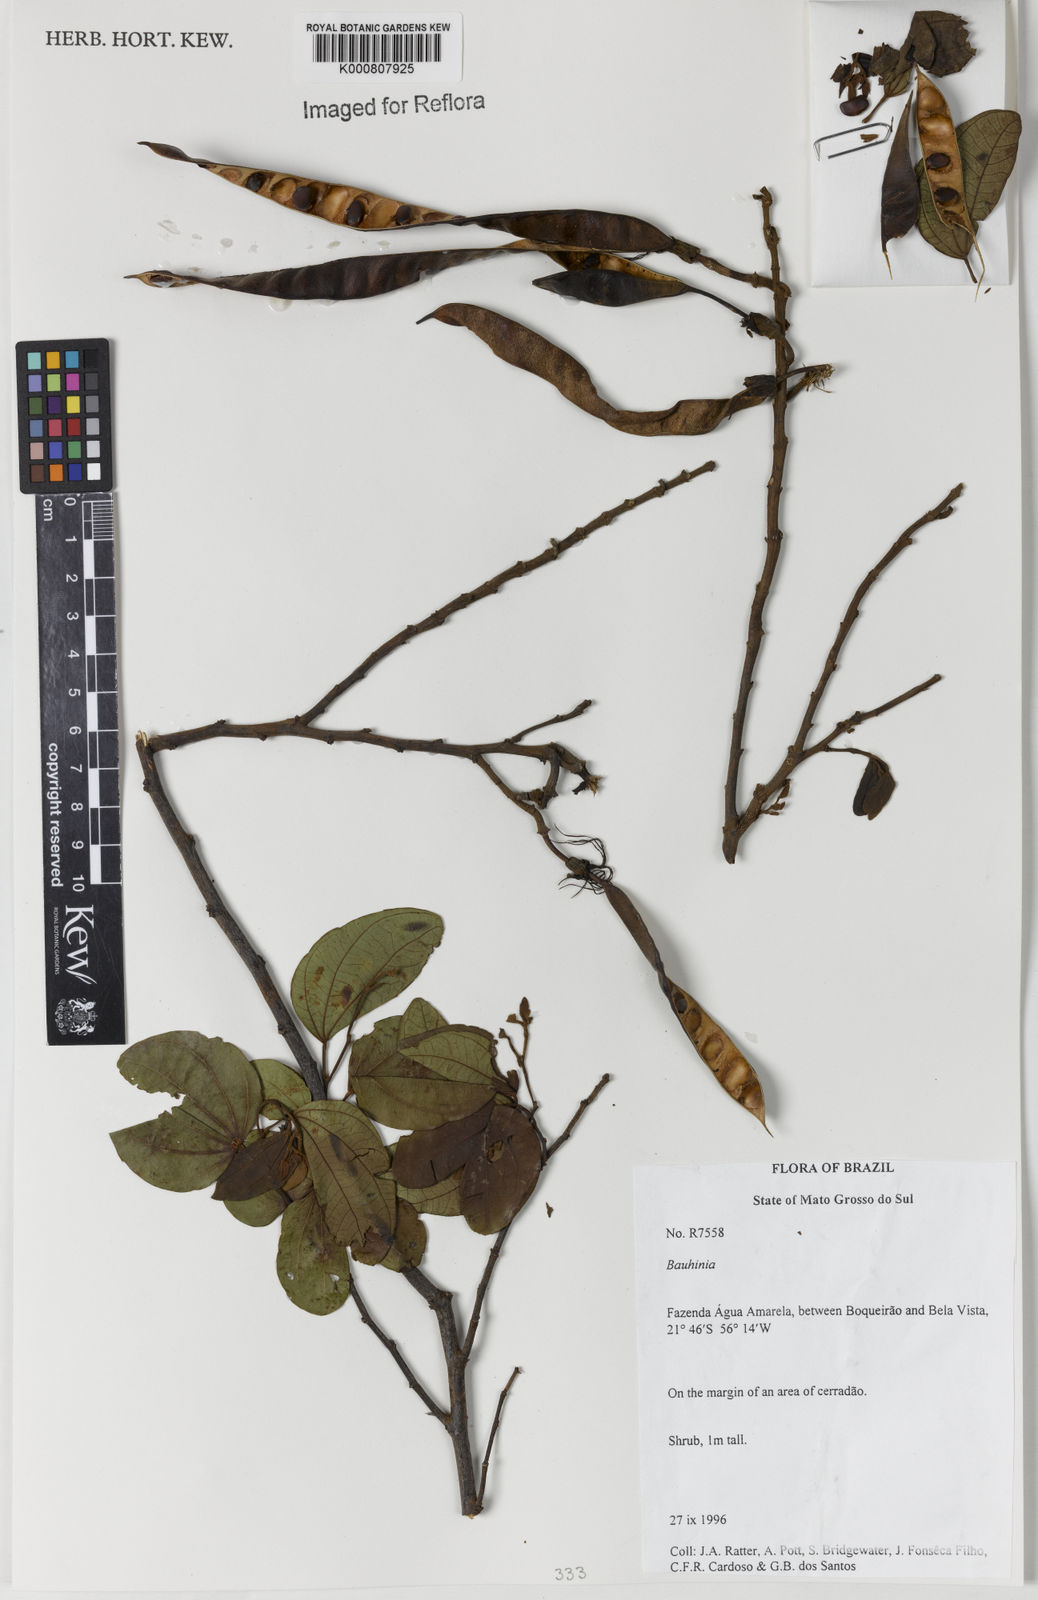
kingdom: Plantae
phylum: Tracheophyta
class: Magnoliopsida
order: Fabales
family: Fabaceae
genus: Bauhinia
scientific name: Bauhinia
